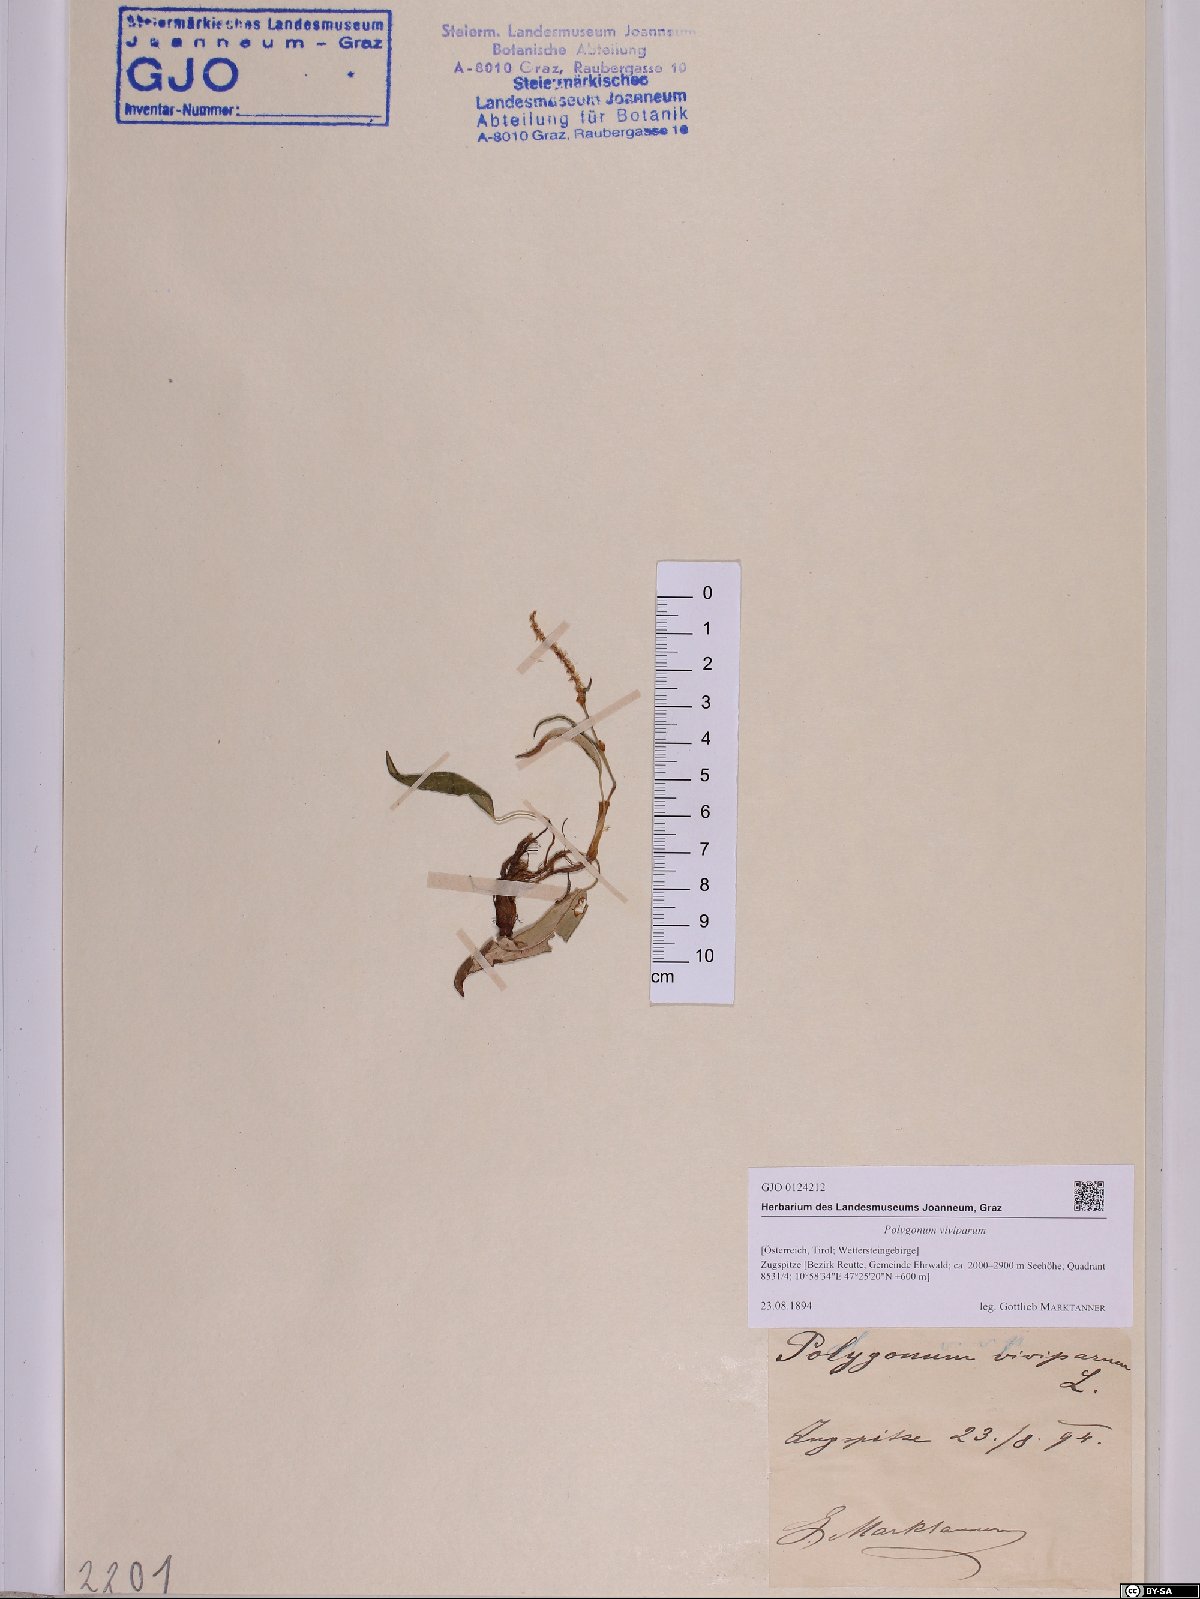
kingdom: Plantae
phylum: Tracheophyta
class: Magnoliopsida
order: Caryophyllales
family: Polygonaceae
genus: Bistorta
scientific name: Bistorta vivipara
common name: Alpine bistort
